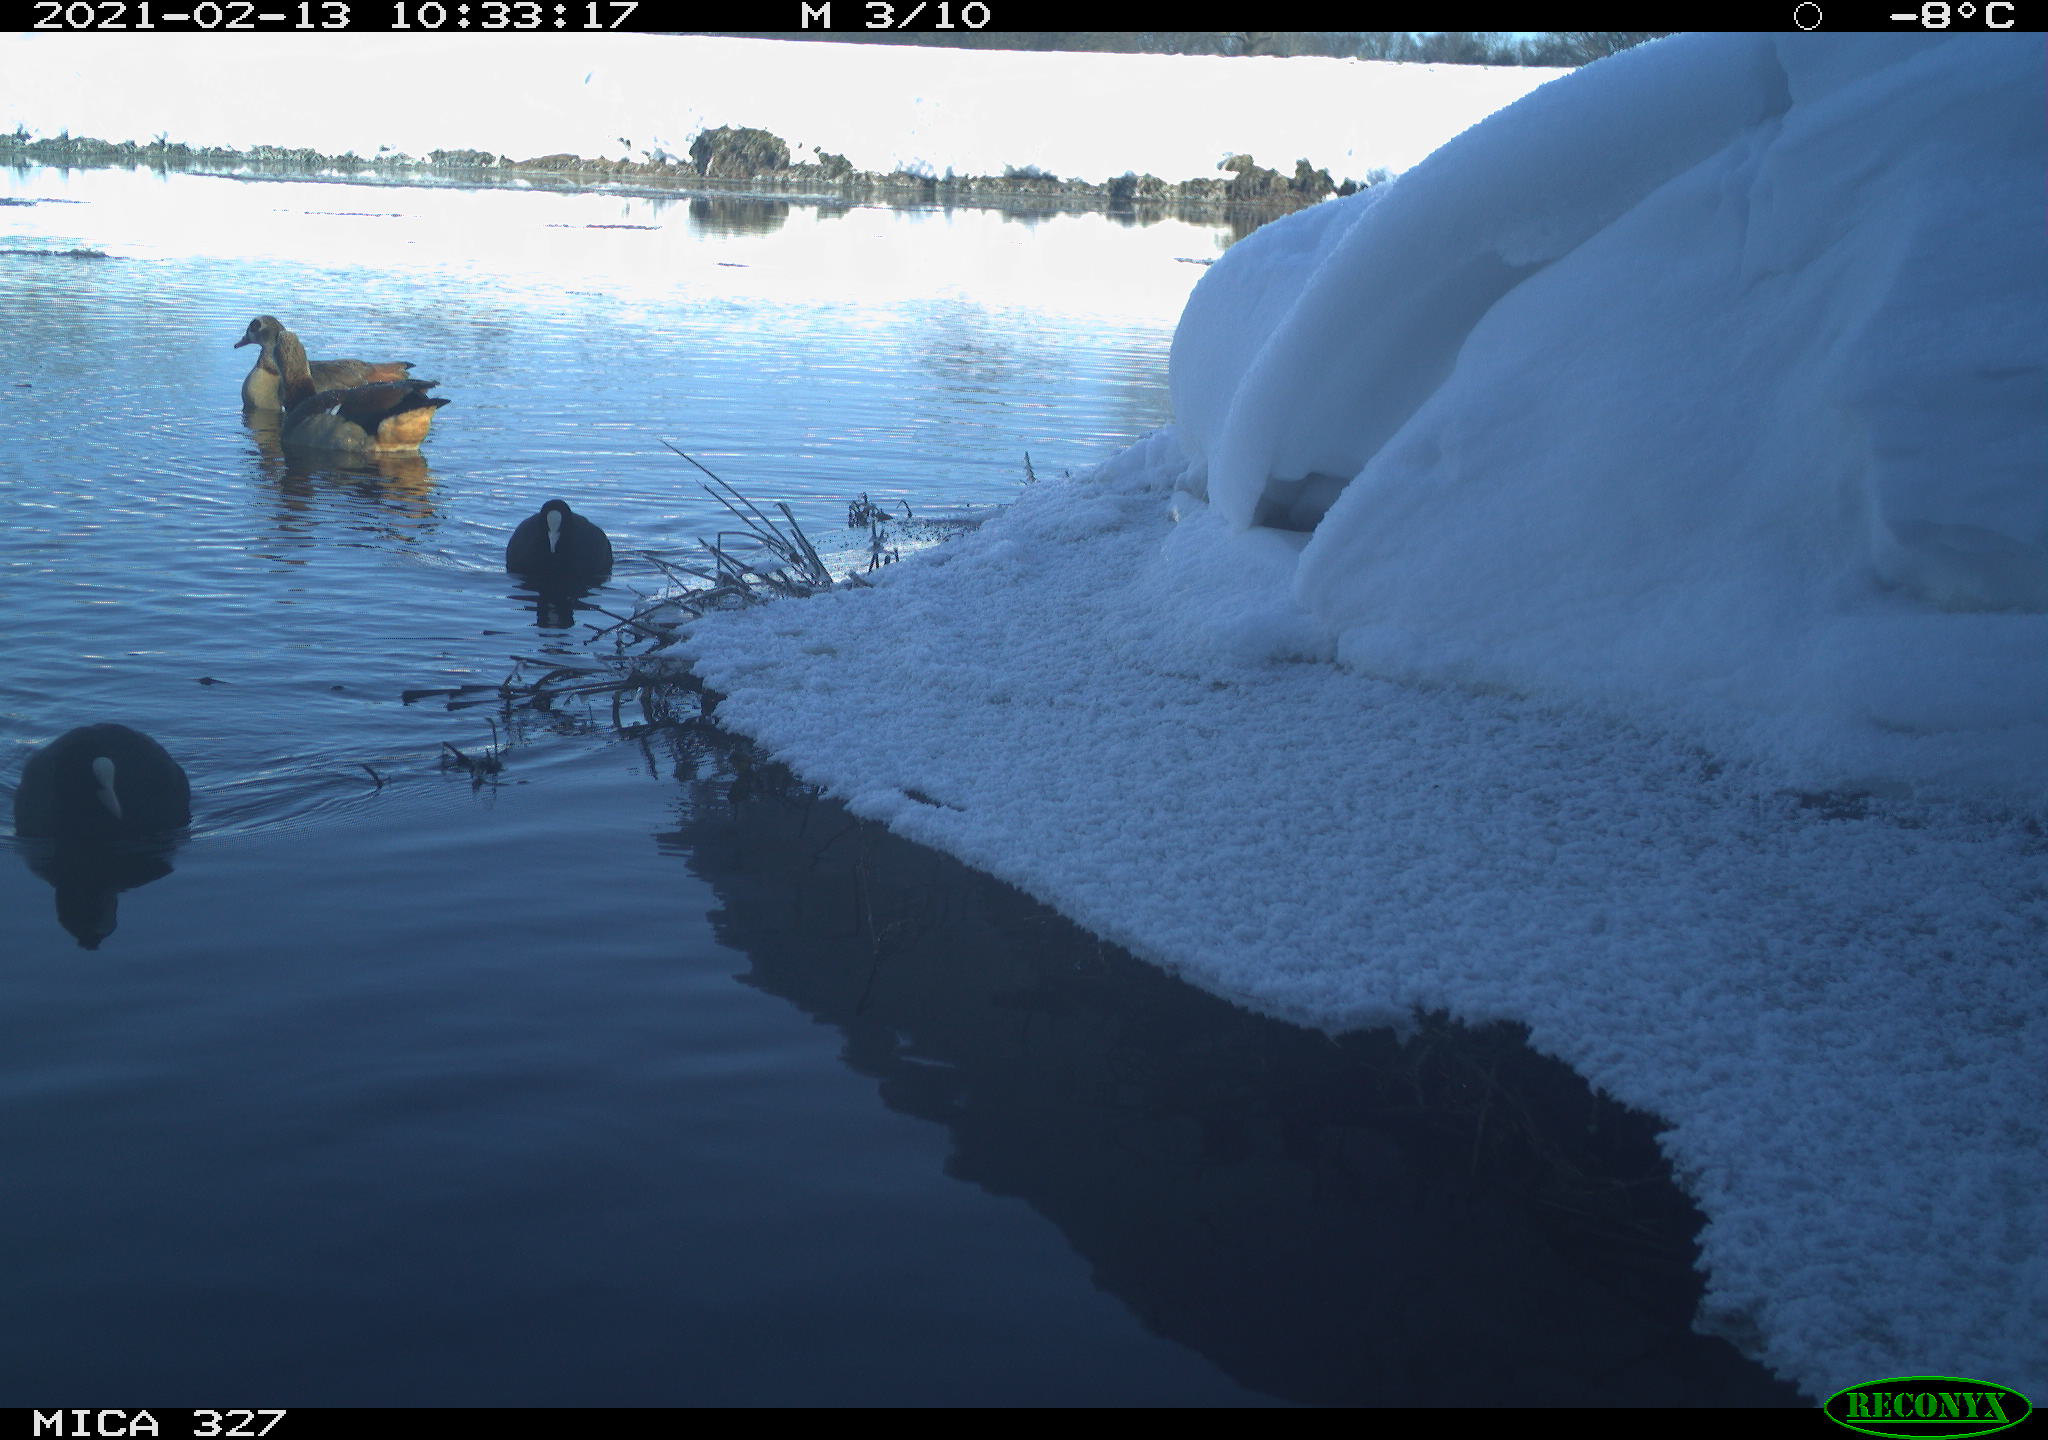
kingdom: Animalia
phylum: Chordata
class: Aves
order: Gruiformes
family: Rallidae
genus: Fulica
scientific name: Fulica atra
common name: Eurasian coot
